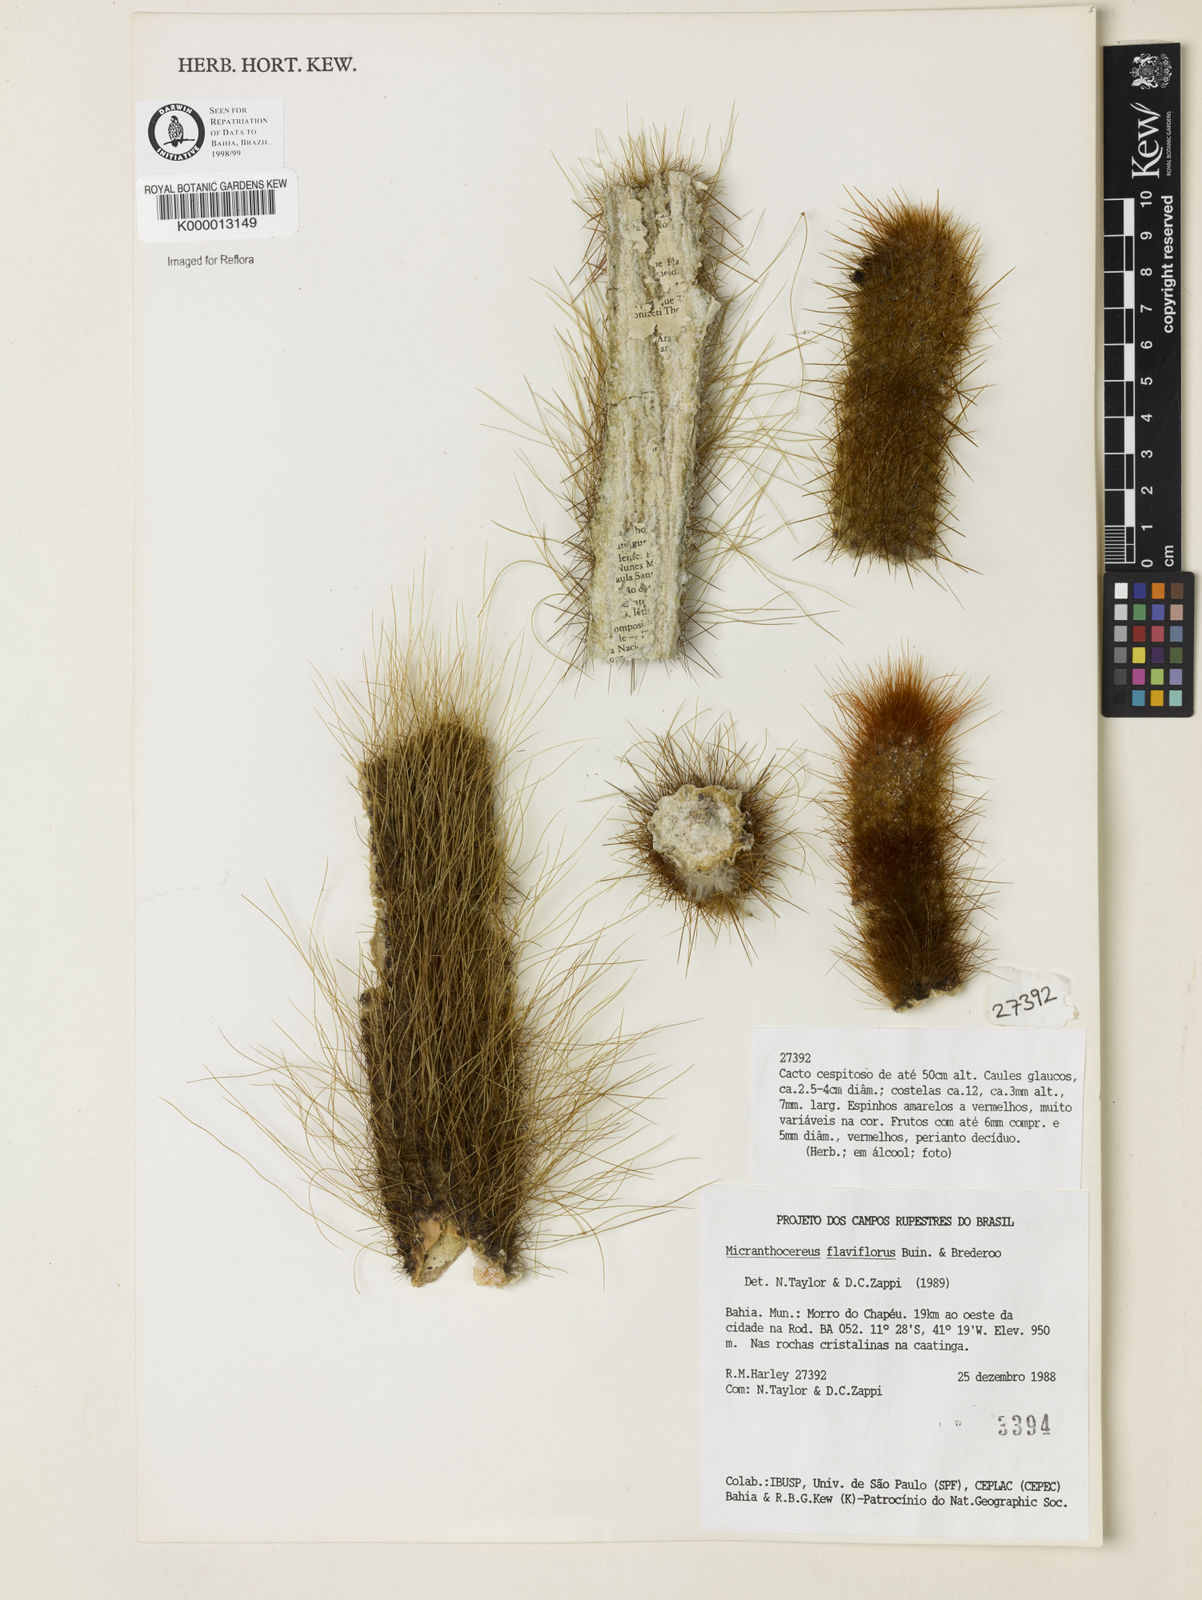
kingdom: Plantae
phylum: Tracheophyta
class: Magnoliopsida
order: Caryophyllales
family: Cactaceae
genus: Micranthocereus
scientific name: Micranthocereus flaviflorus
